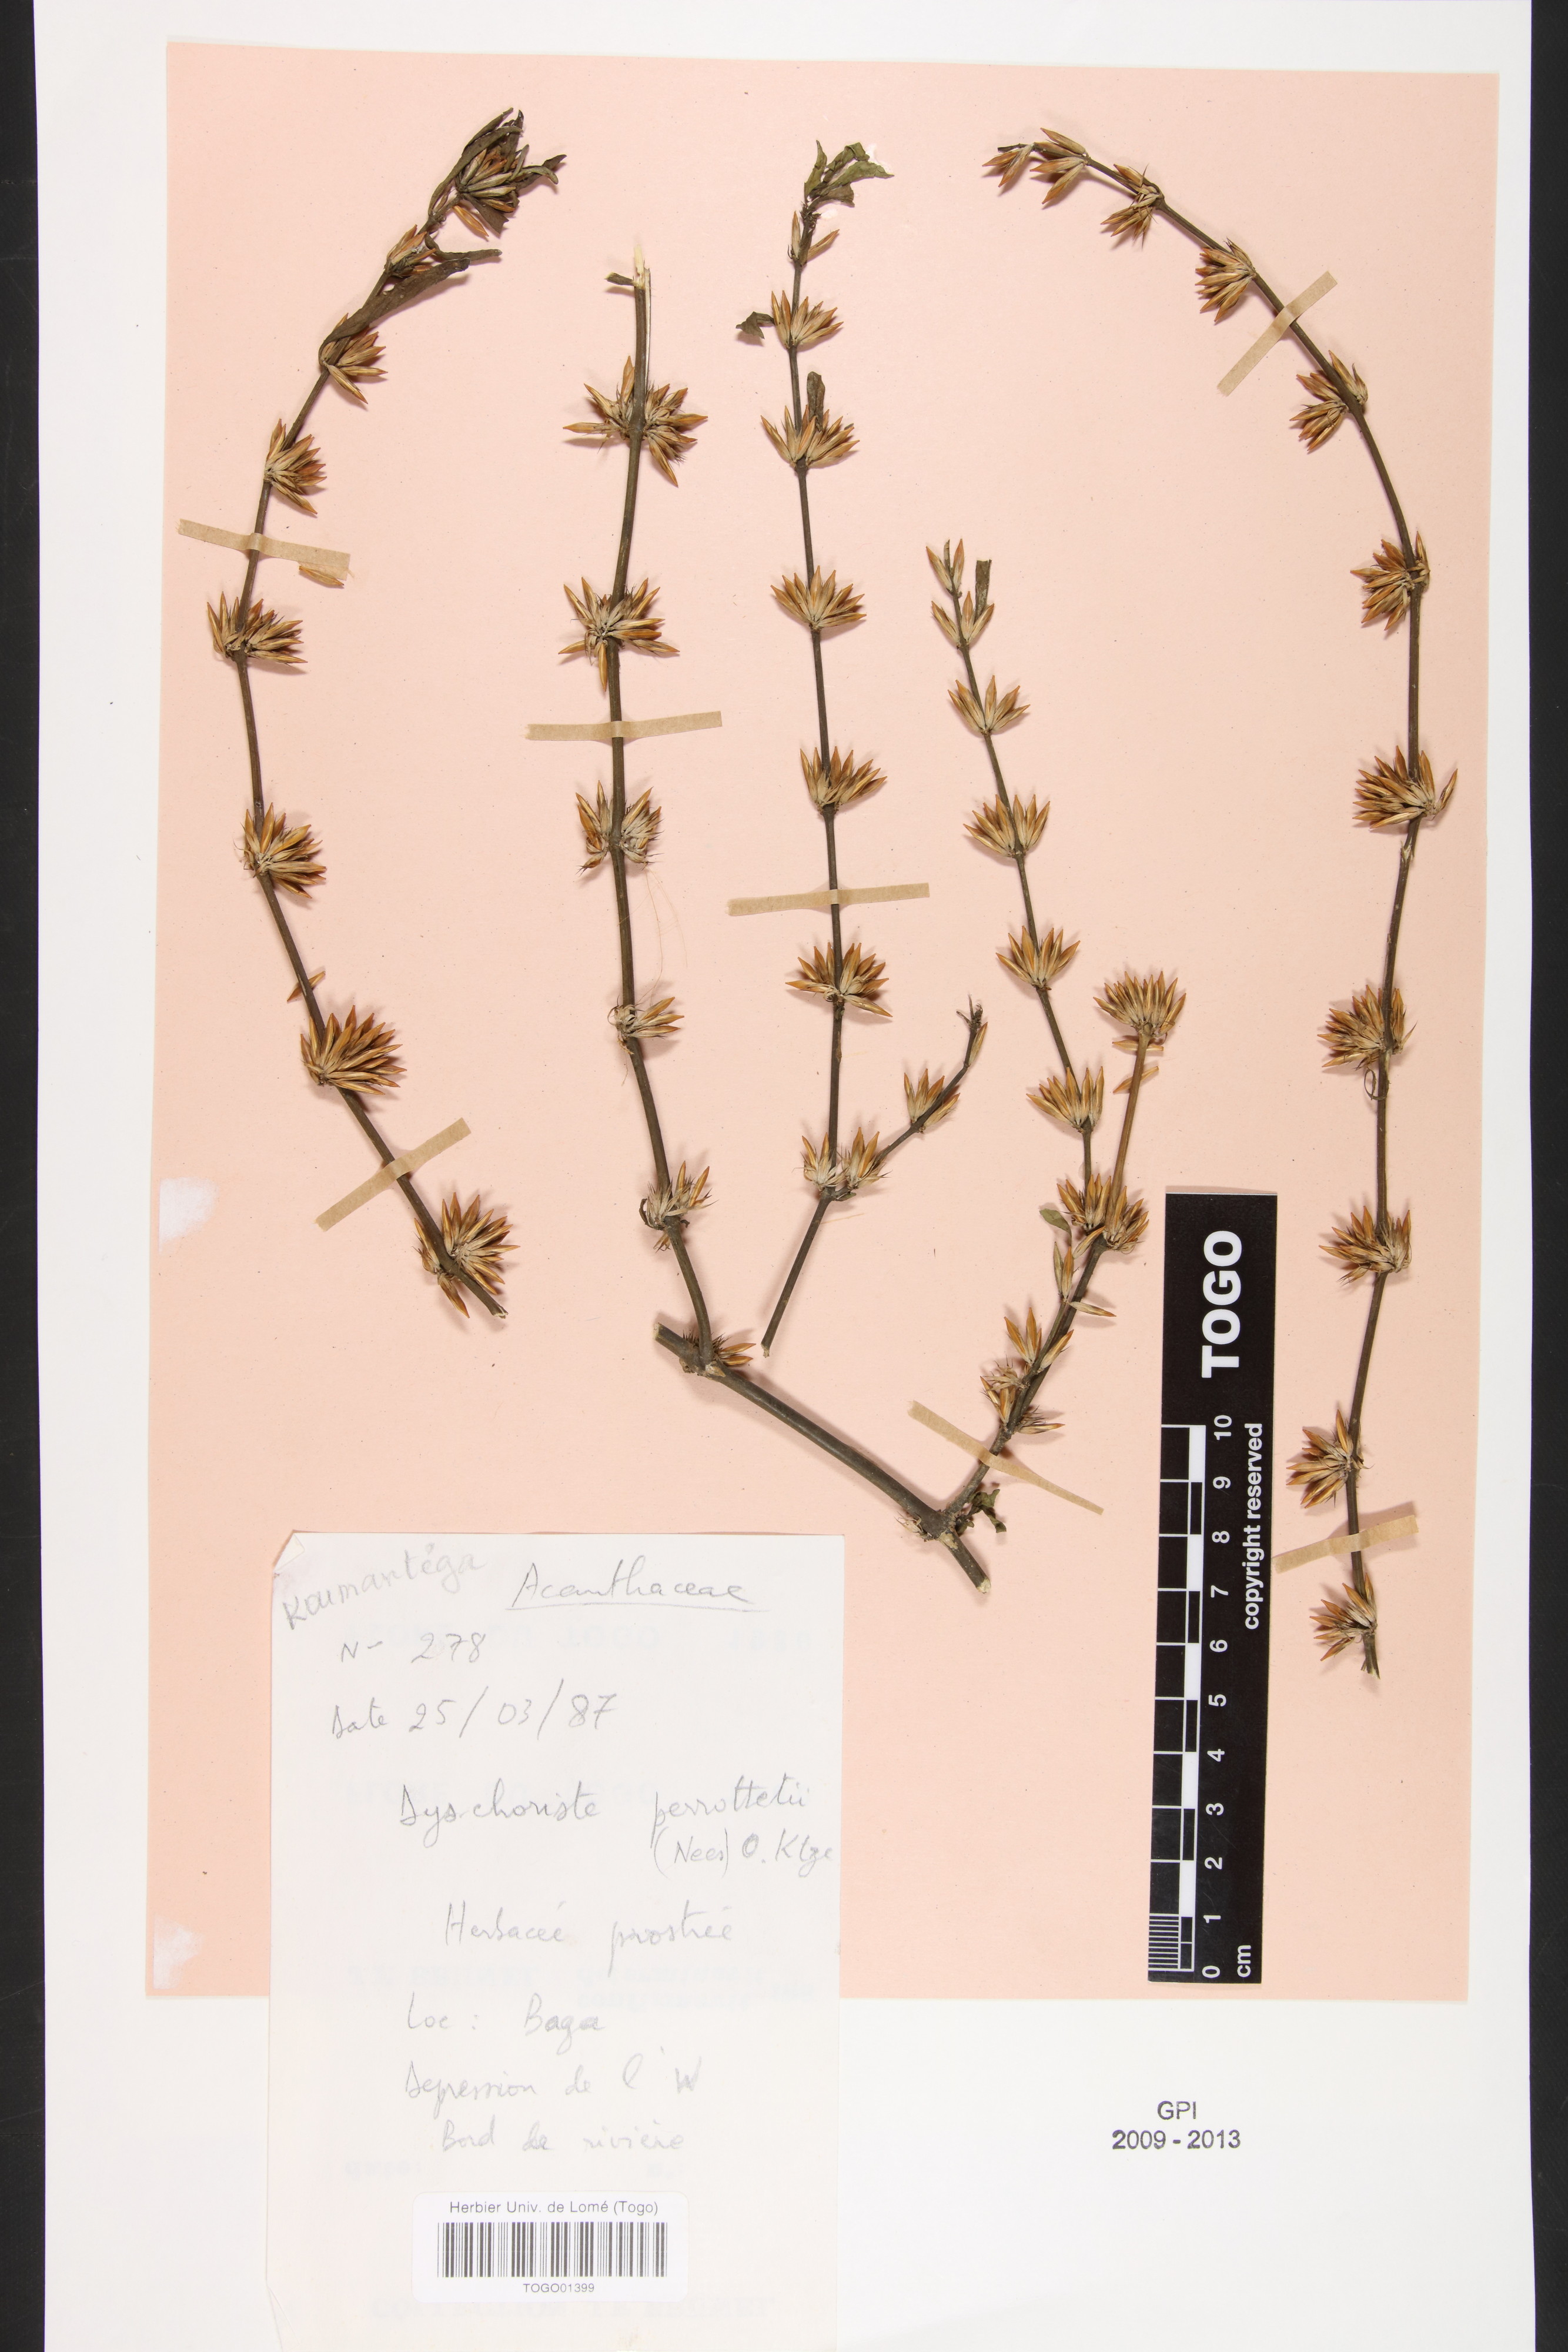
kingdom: Plantae
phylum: Tracheophyta
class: Magnoliopsida
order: Lamiales
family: Acanthaceae
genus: Dyschoriste
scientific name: Dyschoriste nagchana
